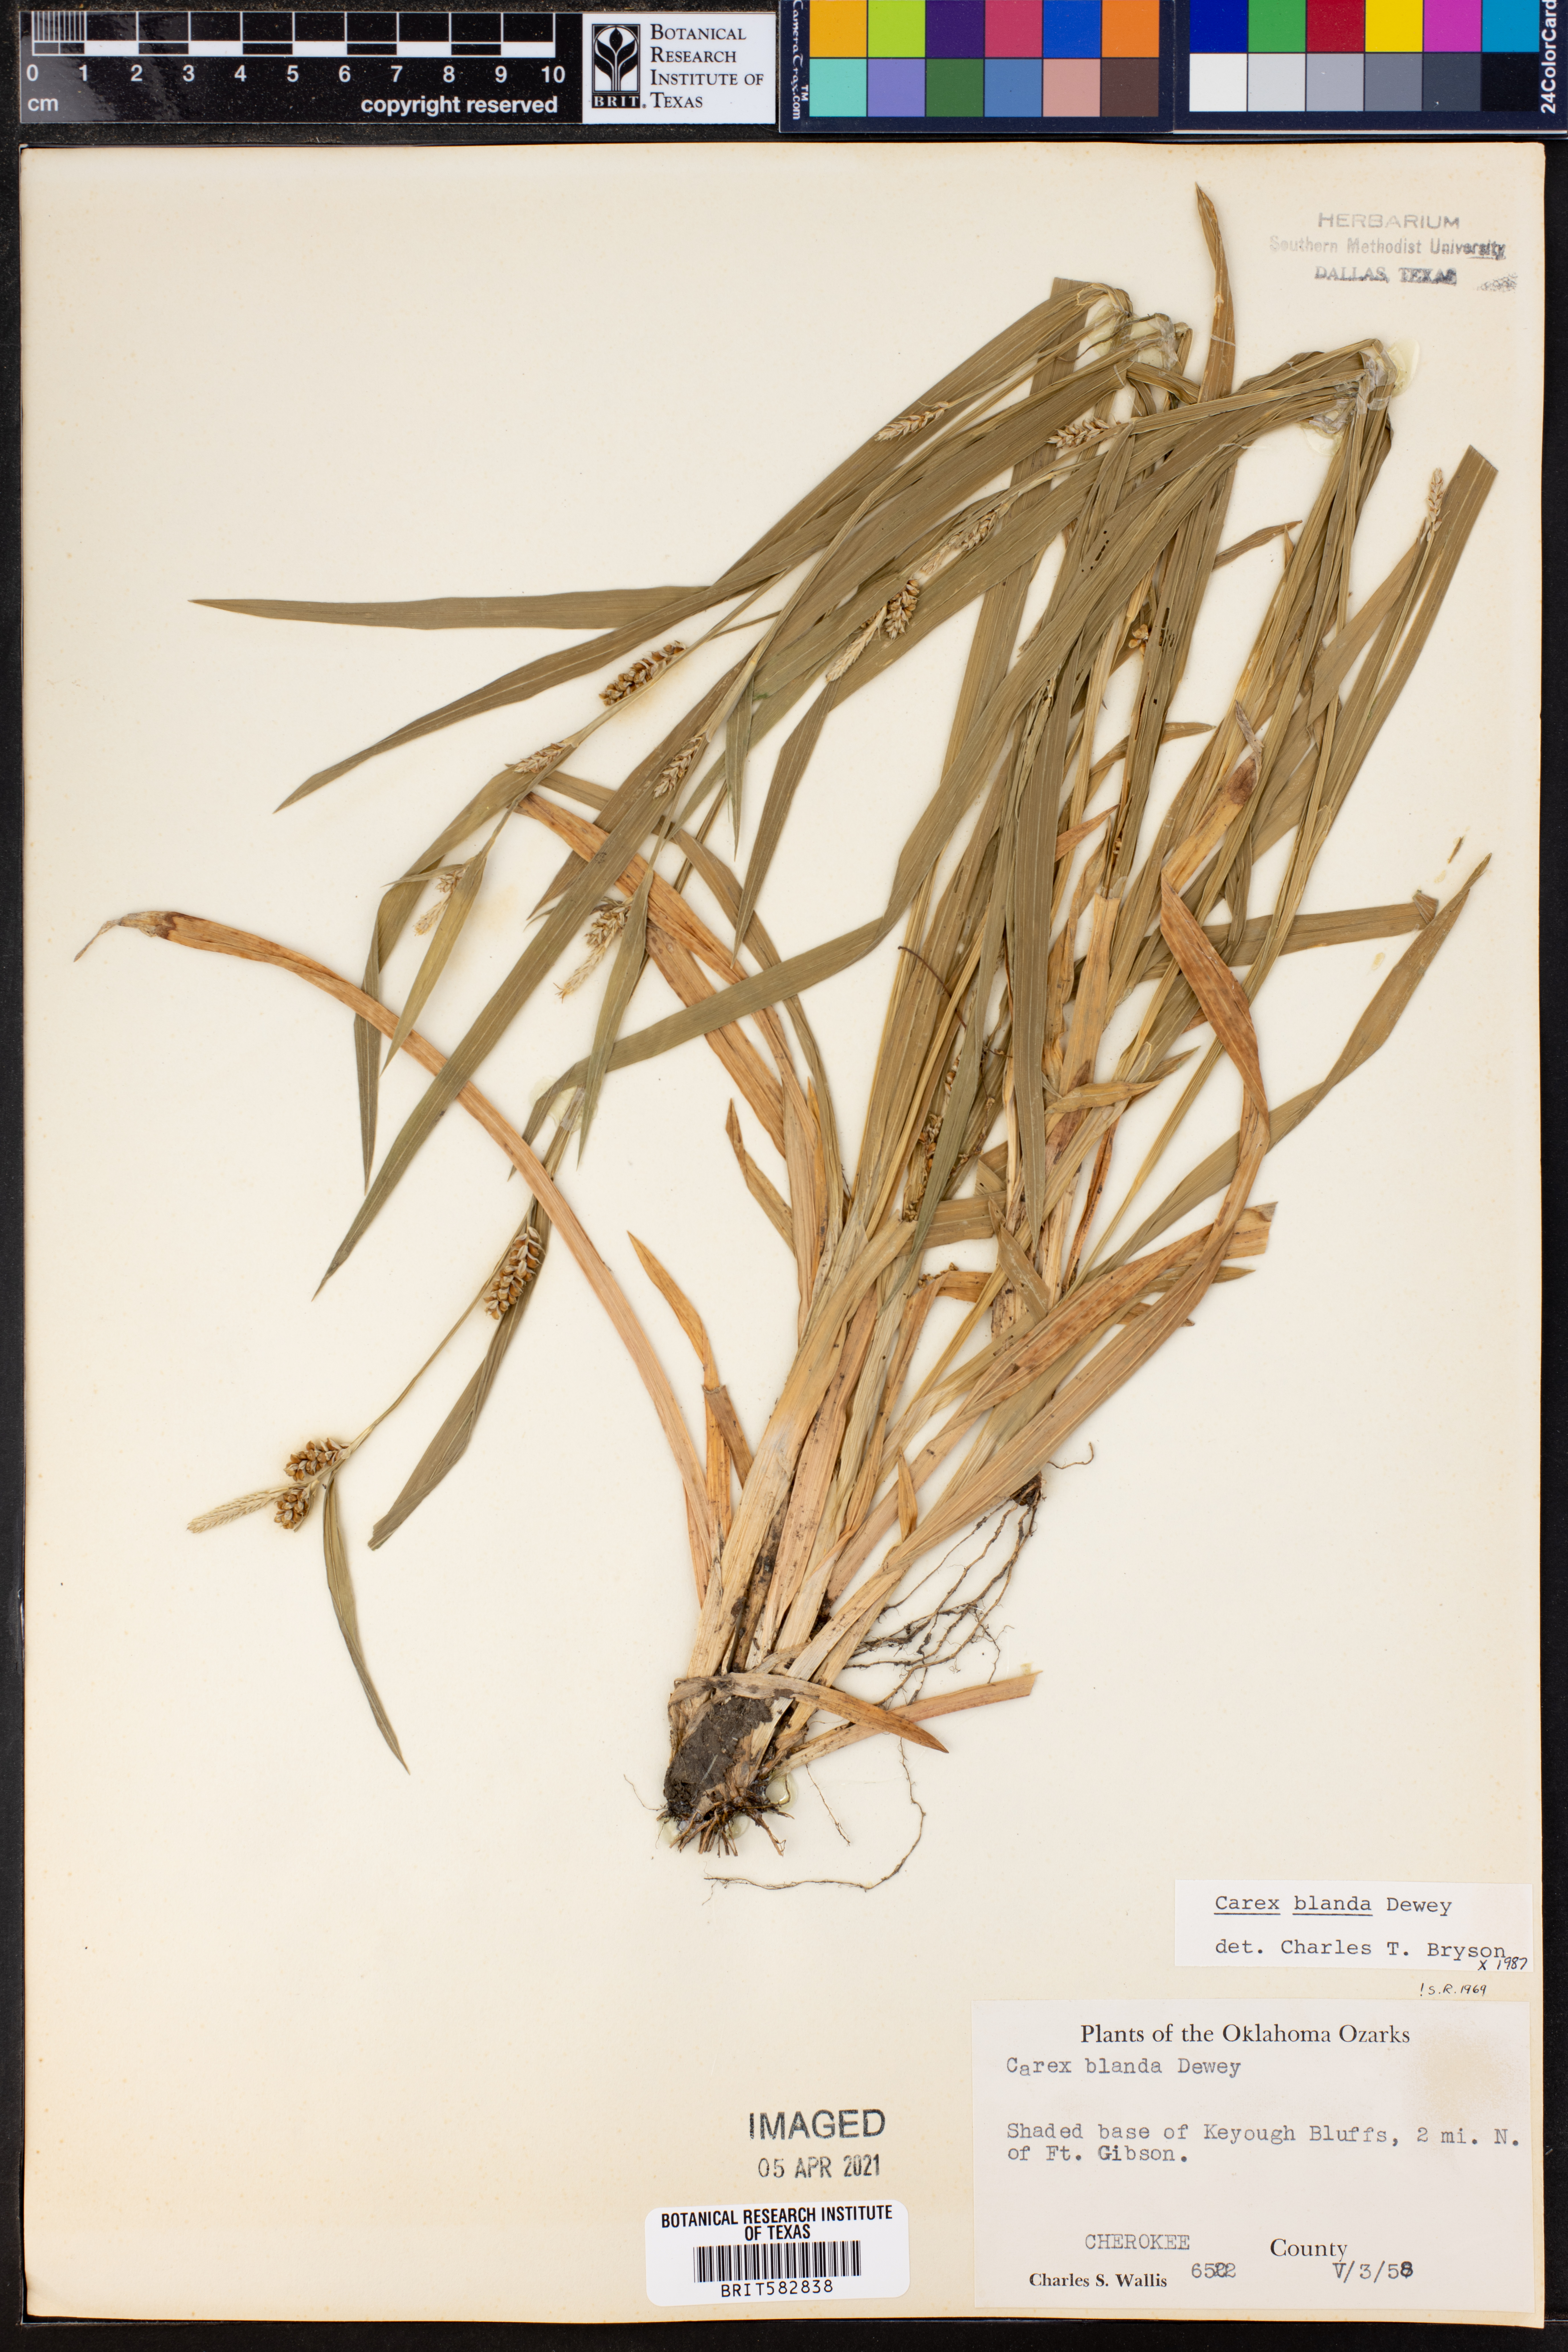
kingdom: Plantae
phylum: Tracheophyta
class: Liliopsida
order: Poales
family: Cyperaceae
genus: Carex
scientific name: Carex blanda
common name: Bland sedge
